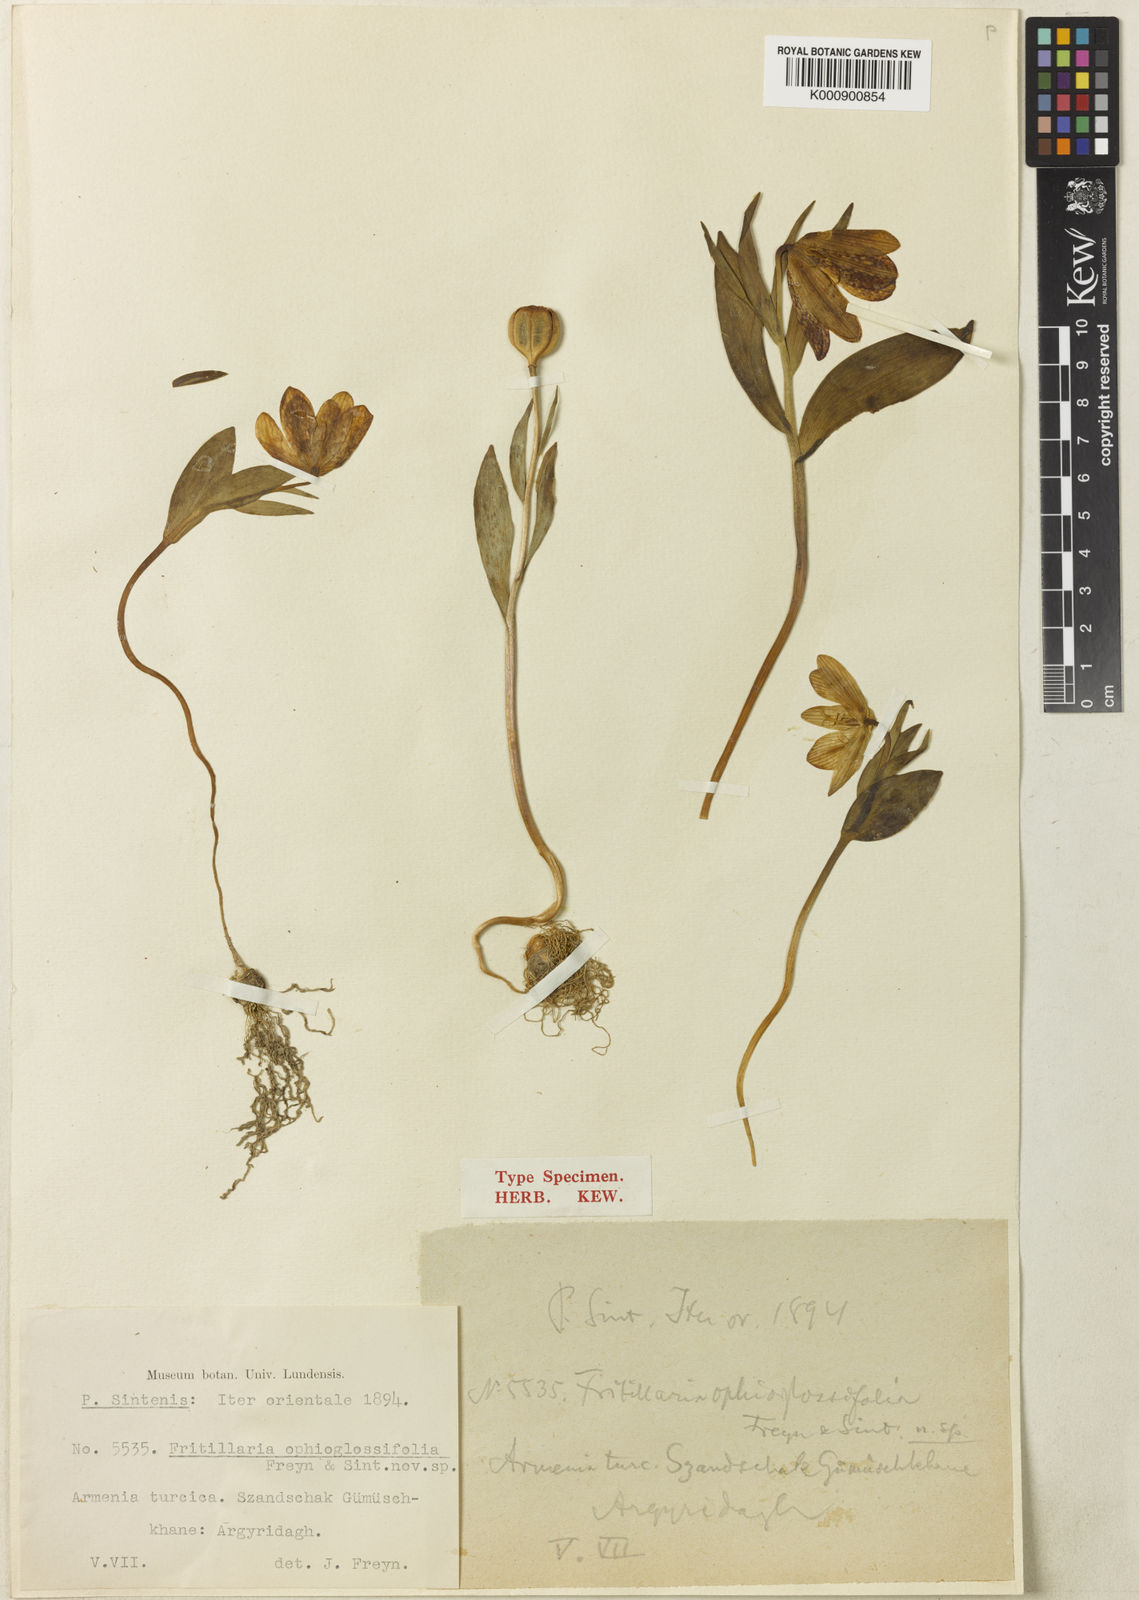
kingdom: Plantae
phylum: Tracheophyta
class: Liliopsida
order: Liliales
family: Liliaceae
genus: Fritillaria
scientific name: Fritillaria latifolia
